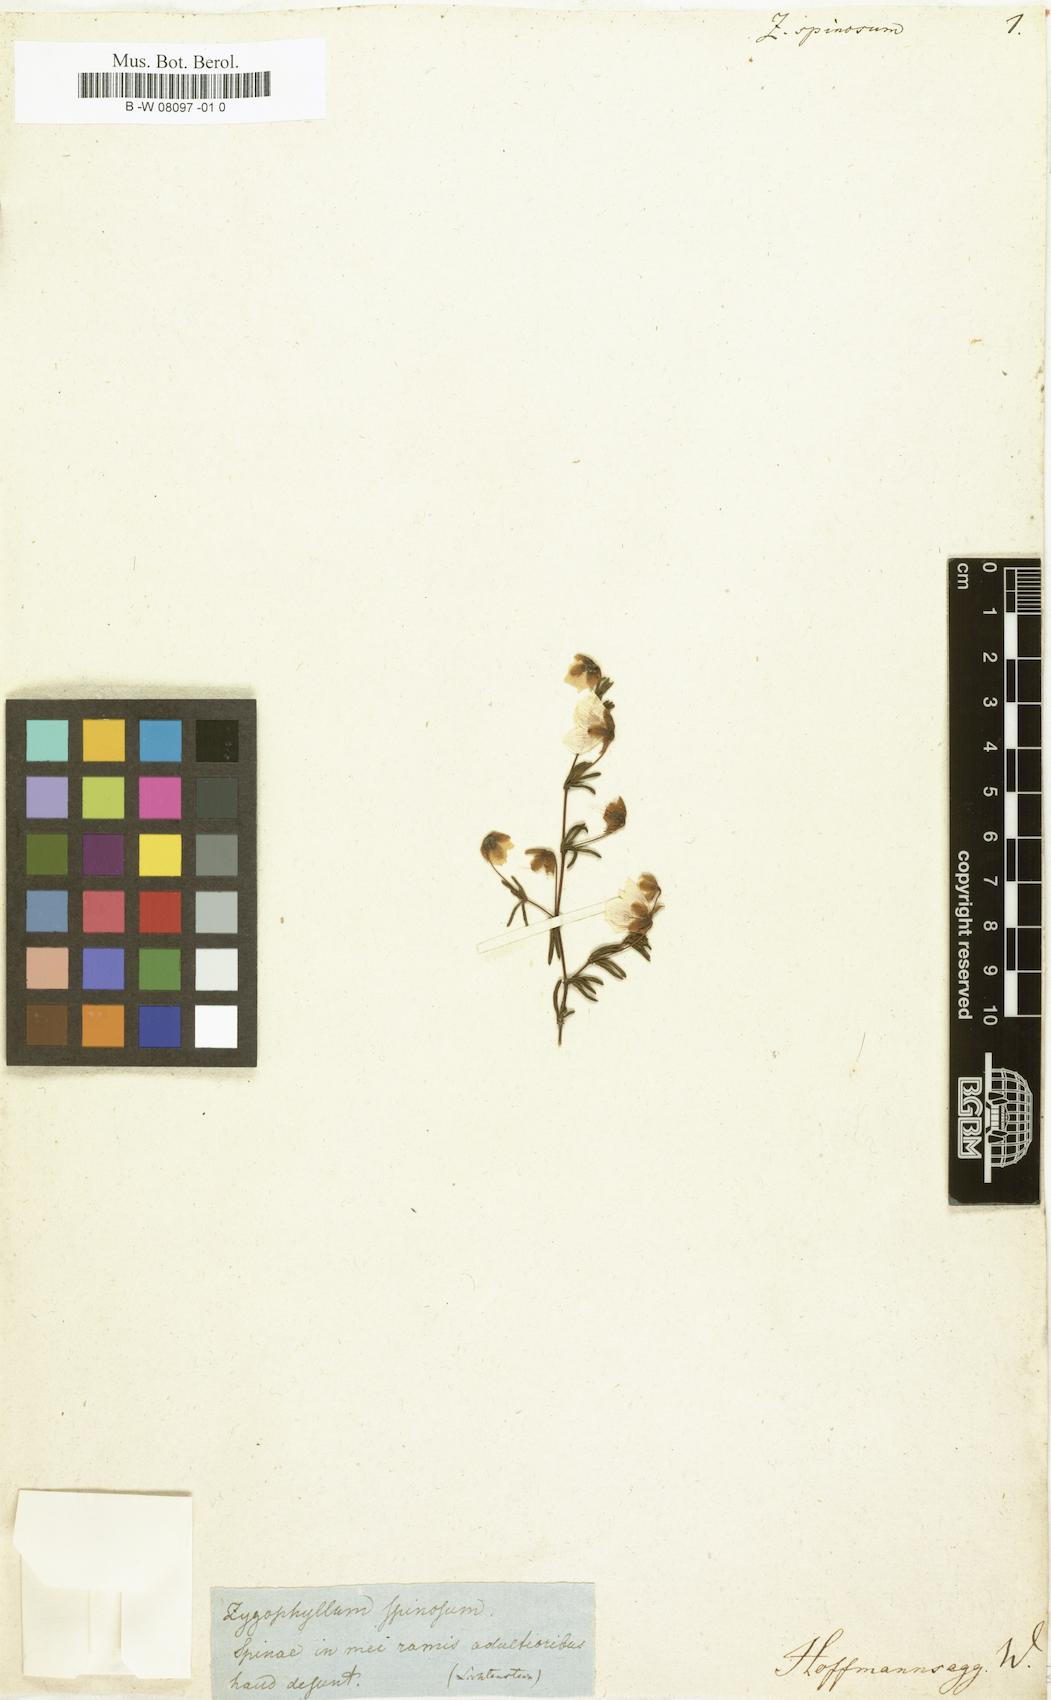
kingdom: Plantae
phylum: Tracheophyta
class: Magnoliopsida
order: Zygophyllales
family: Zygophyllaceae
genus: Roepera
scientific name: Roepera spinosa
